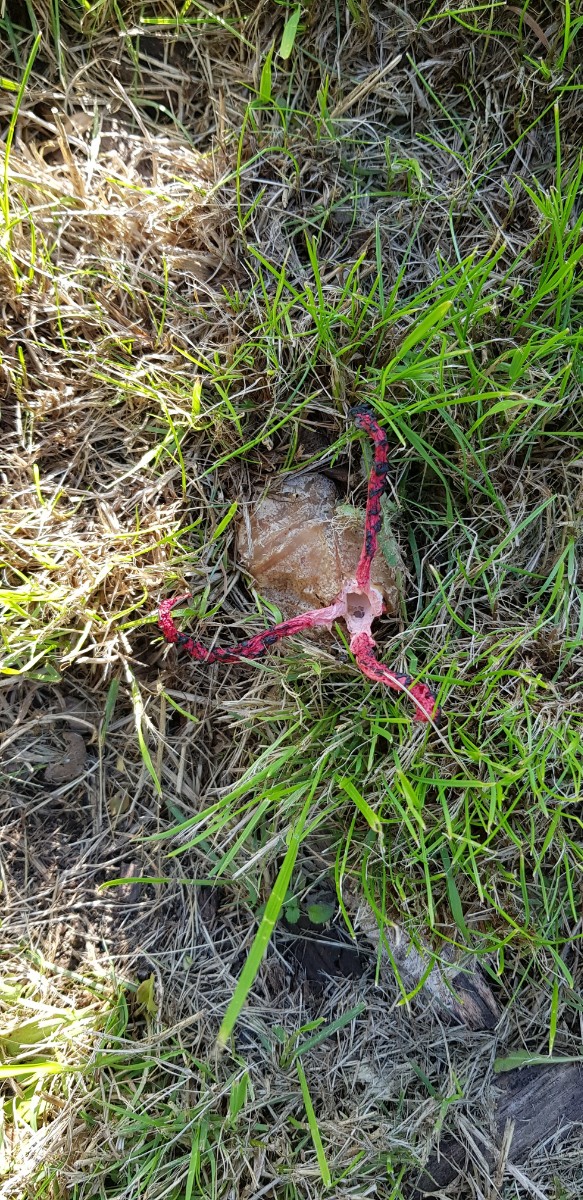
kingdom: Fungi
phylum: Basidiomycota
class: Agaricomycetes
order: Phallales
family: Phallaceae
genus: Clathrus
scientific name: Clathrus archeri
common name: blækspruttesvamp
